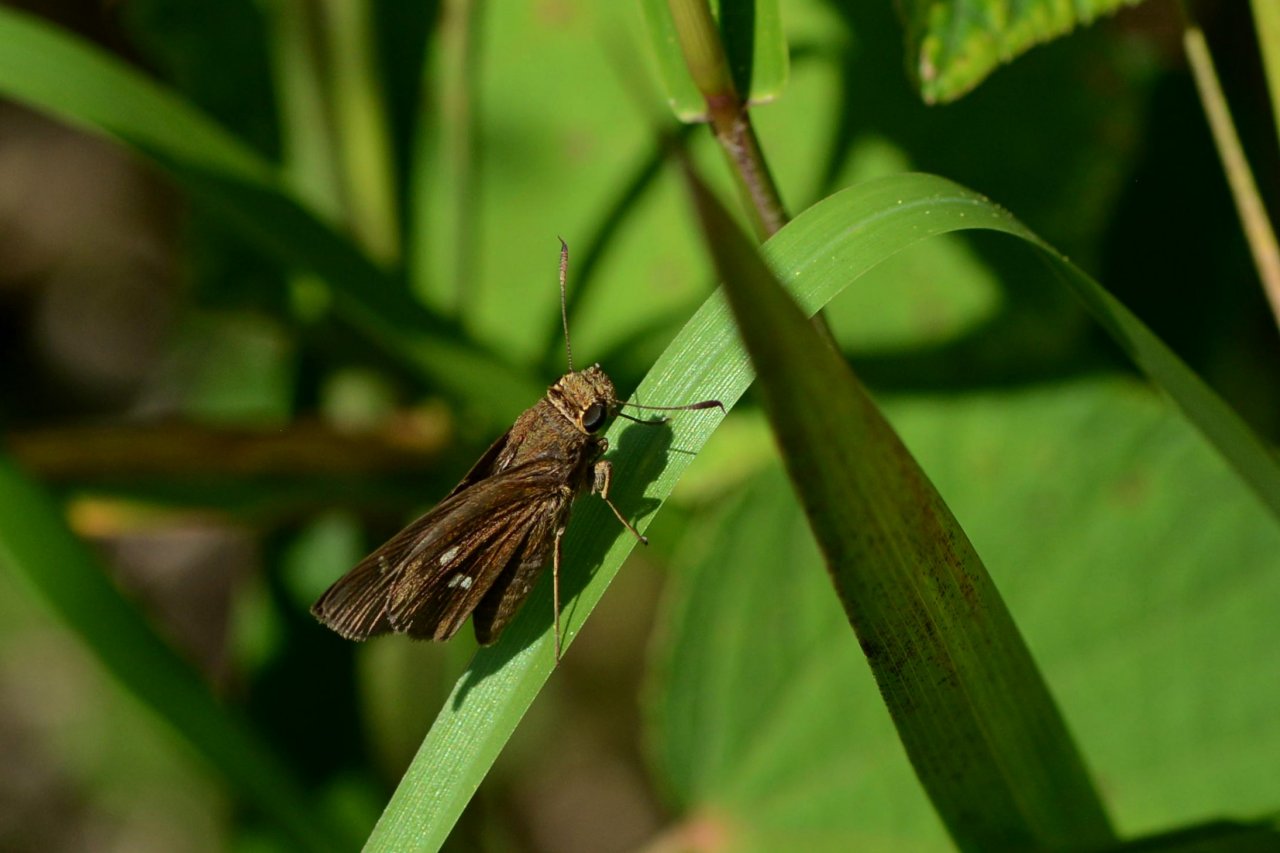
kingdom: Animalia
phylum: Arthropoda
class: Insecta
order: Lepidoptera
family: Hesperiidae
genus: Oligoria
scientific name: Oligoria maculata
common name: Twin-spot Skipper
